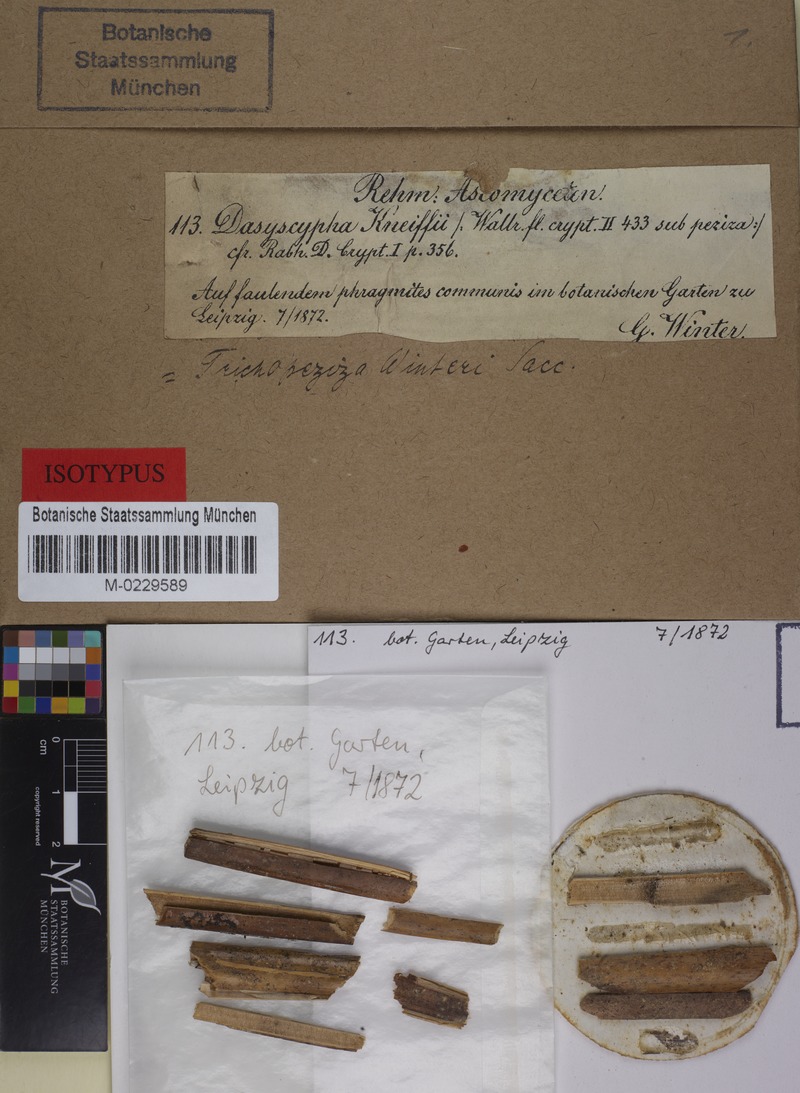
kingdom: Fungi
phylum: Ascomycota
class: Leotiomycetes
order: Helotiales
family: Lachnaceae
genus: Albotricha
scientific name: Albotricha winteri
